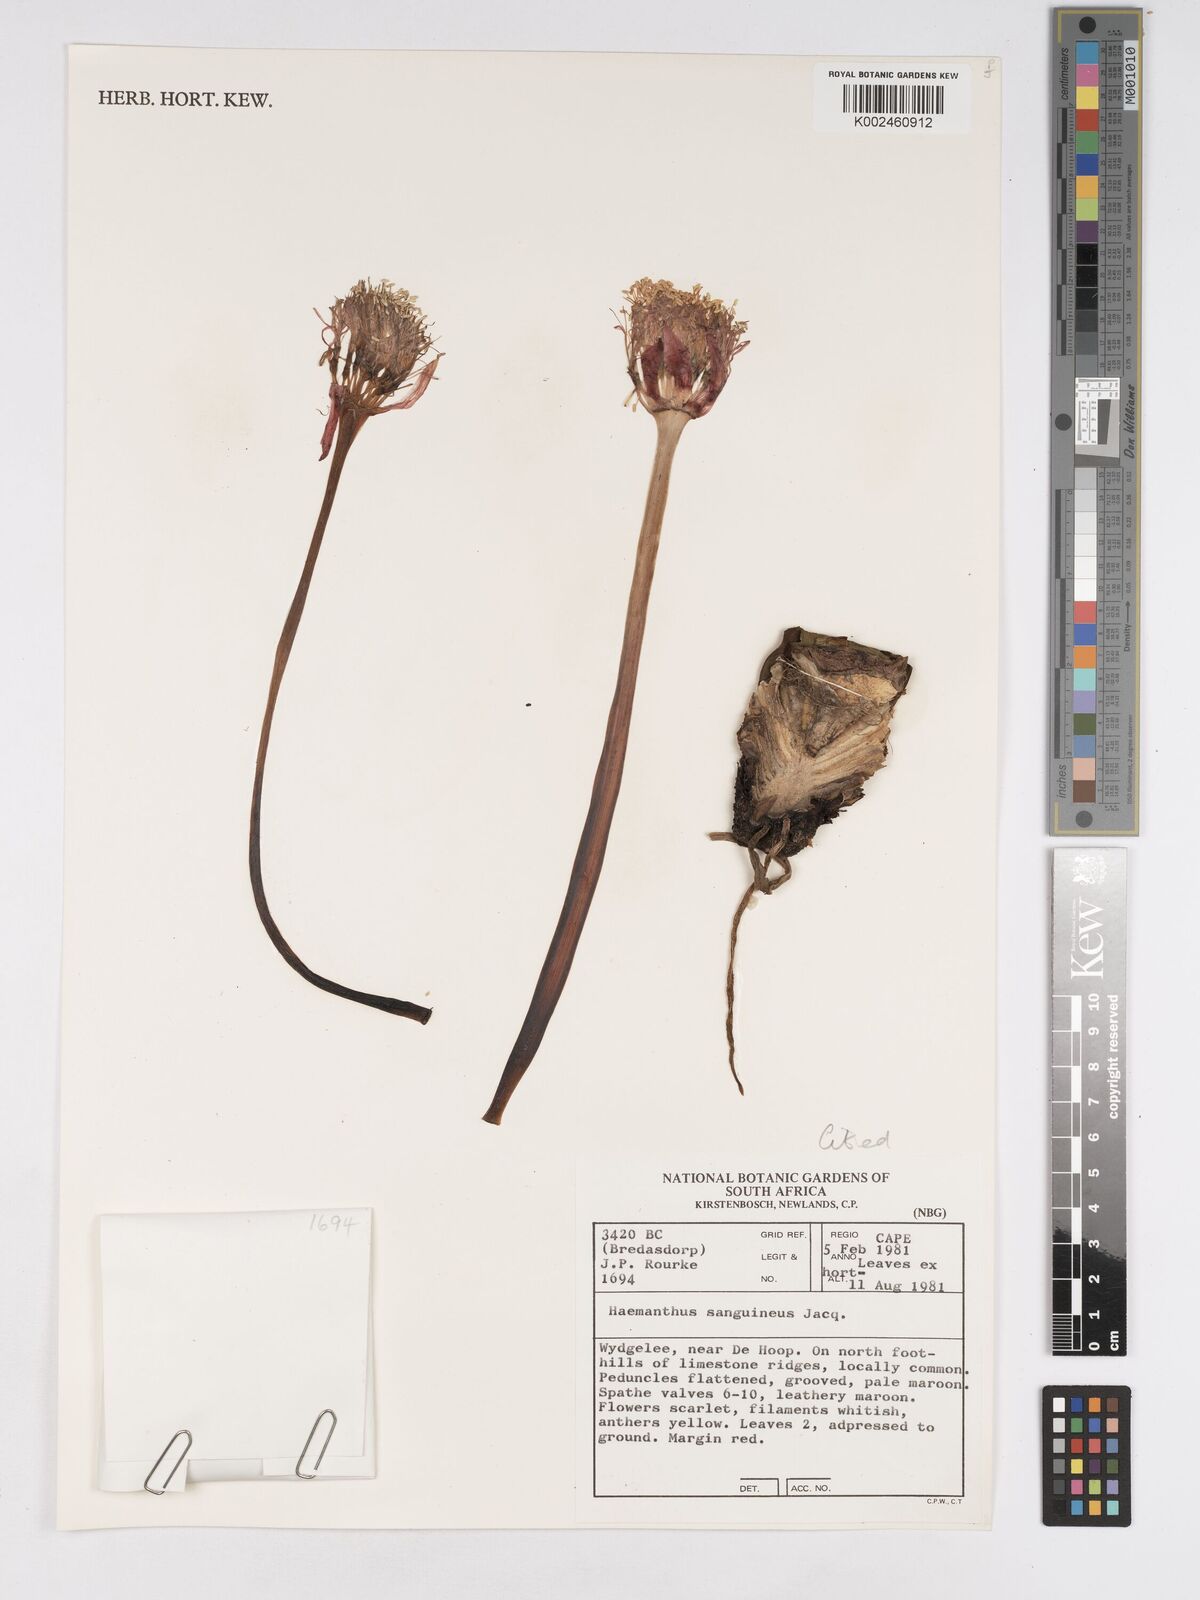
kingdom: Plantae
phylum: Tracheophyta
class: Liliopsida
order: Asparagales
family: Amaryllidaceae
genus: Haemanthus
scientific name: Haemanthus sanguineus
